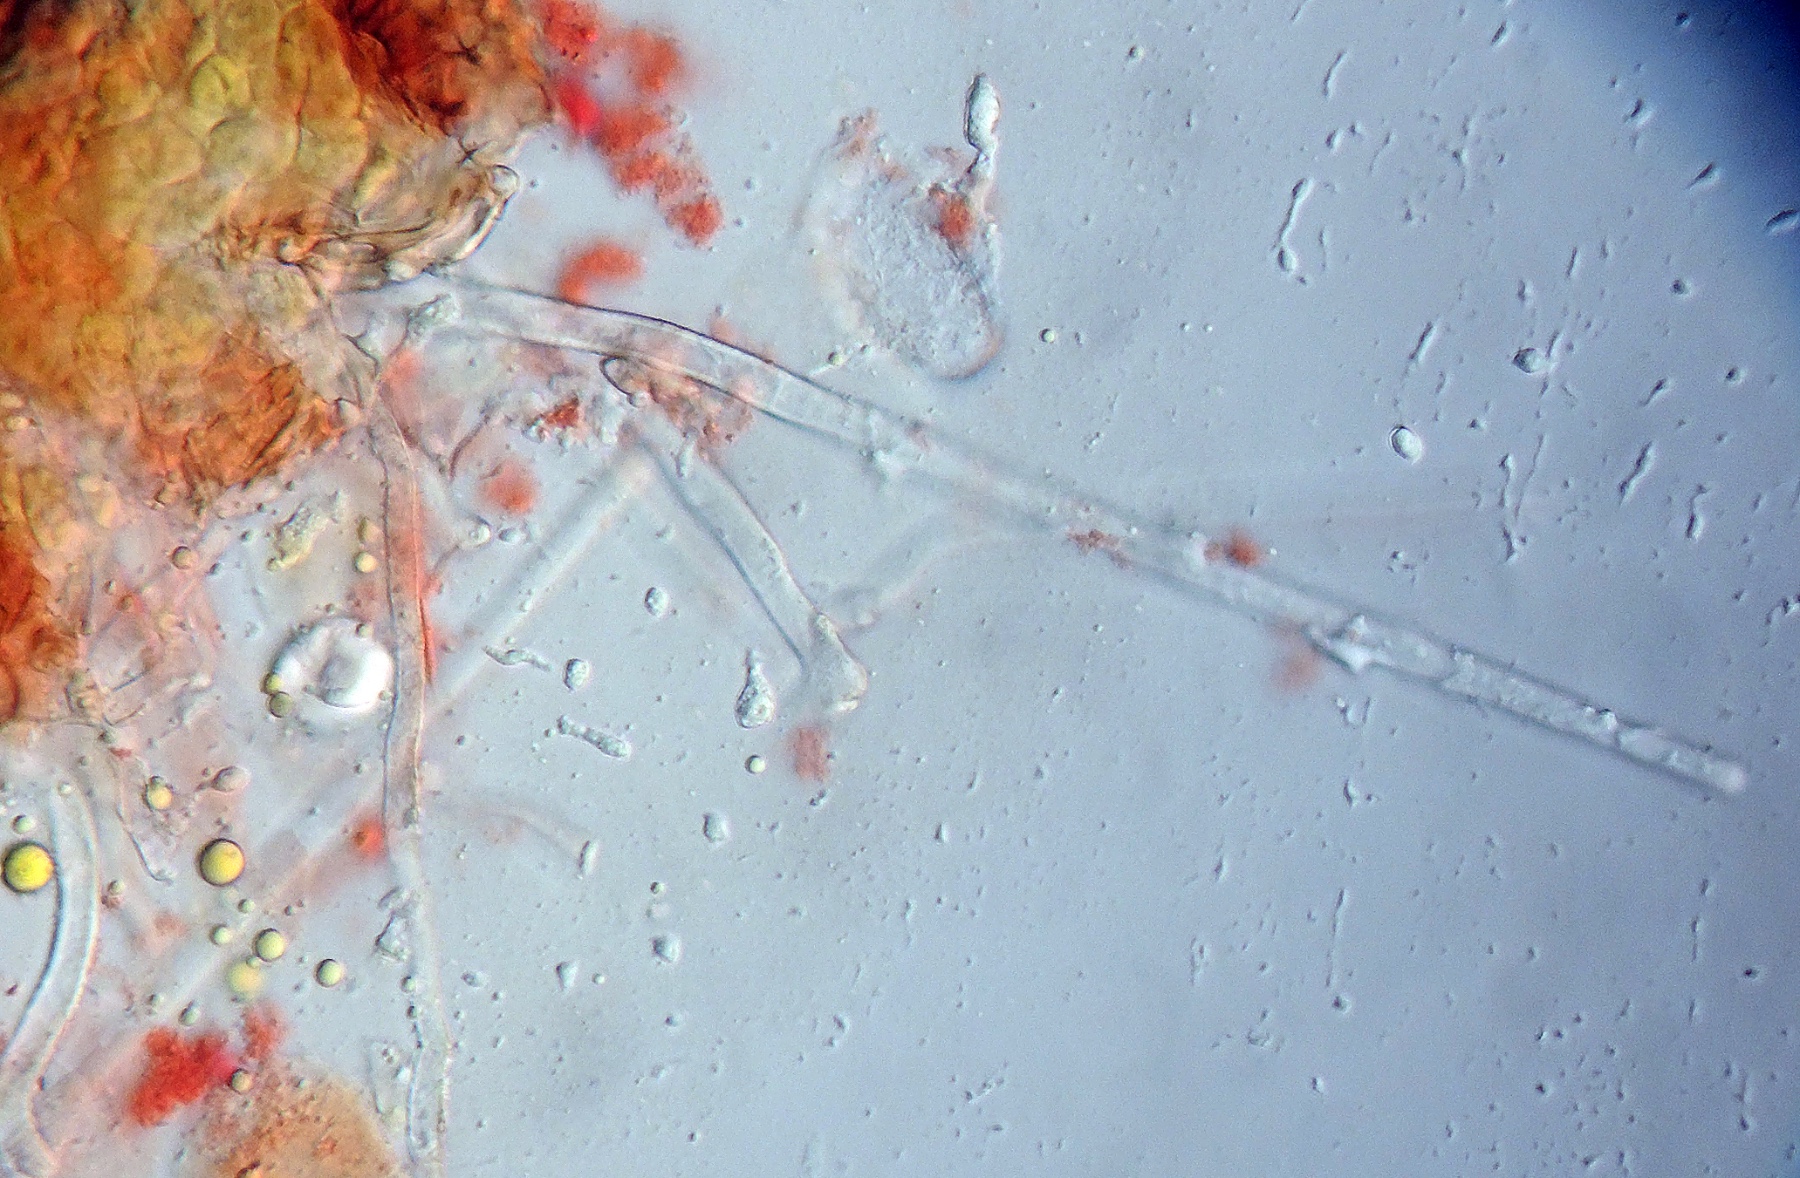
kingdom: Fungi
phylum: Ascomycota
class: Leotiomycetes
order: Helotiales
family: Erysiphaceae
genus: Erysiphe
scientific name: Erysiphe intermedia
